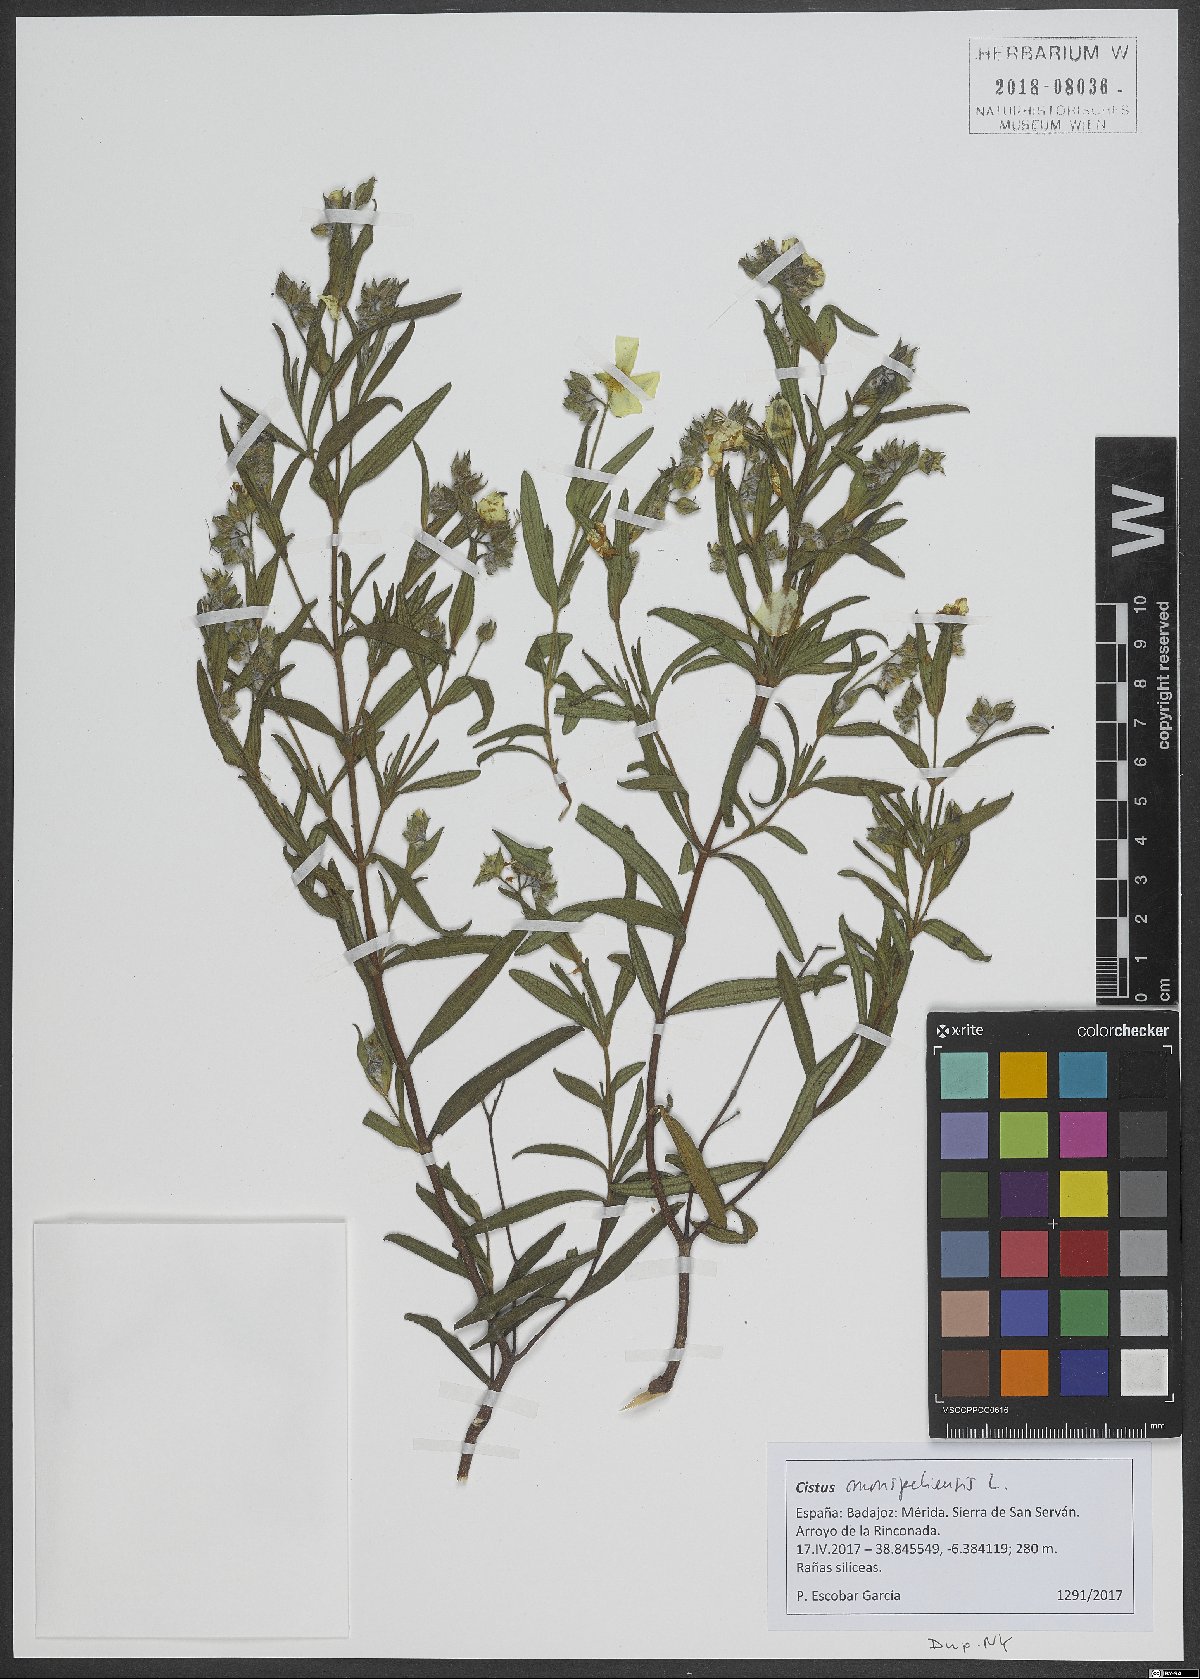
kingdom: Plantae
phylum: Tracheophyta
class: Magnoliopsida
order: Malvales
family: Cistaceae
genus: Cistus
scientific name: Cistus monspeliensis
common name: Montpelier cistus
